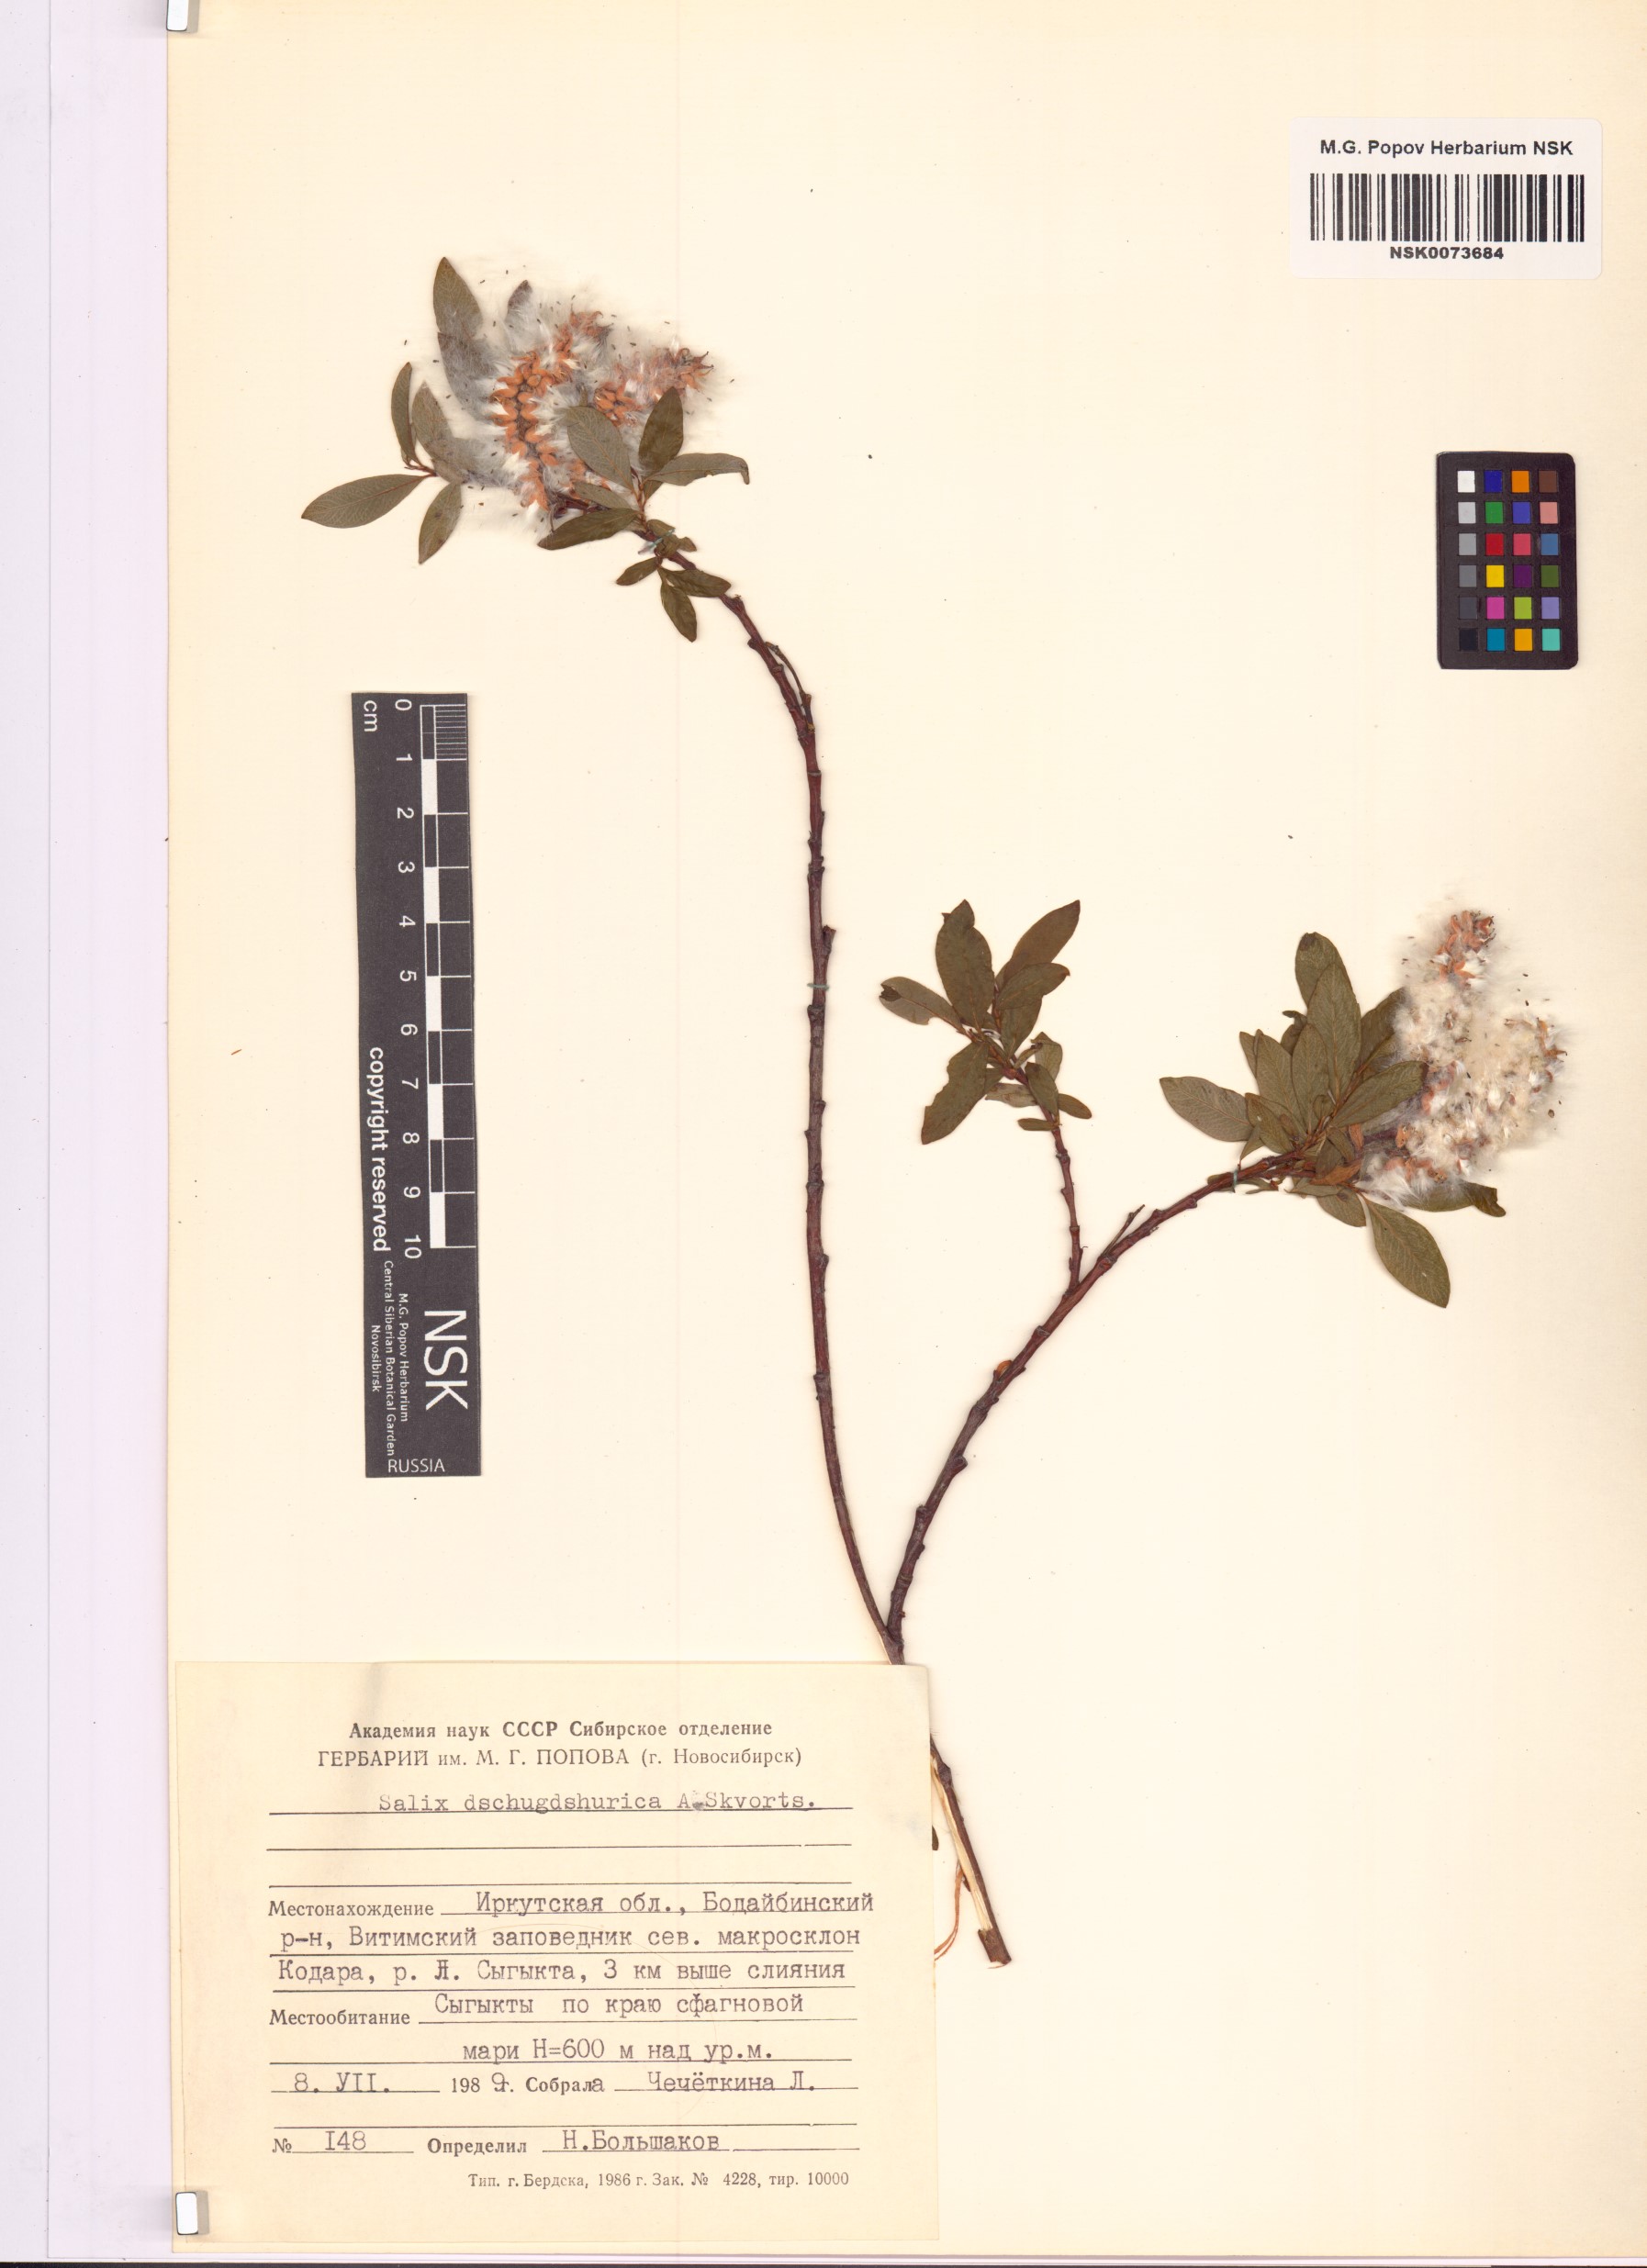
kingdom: Plantae
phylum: Tracheophyta
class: Magnoliopsida
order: Malpighiales
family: Salicaceae
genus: Salix
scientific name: Salix dshugdshurica
